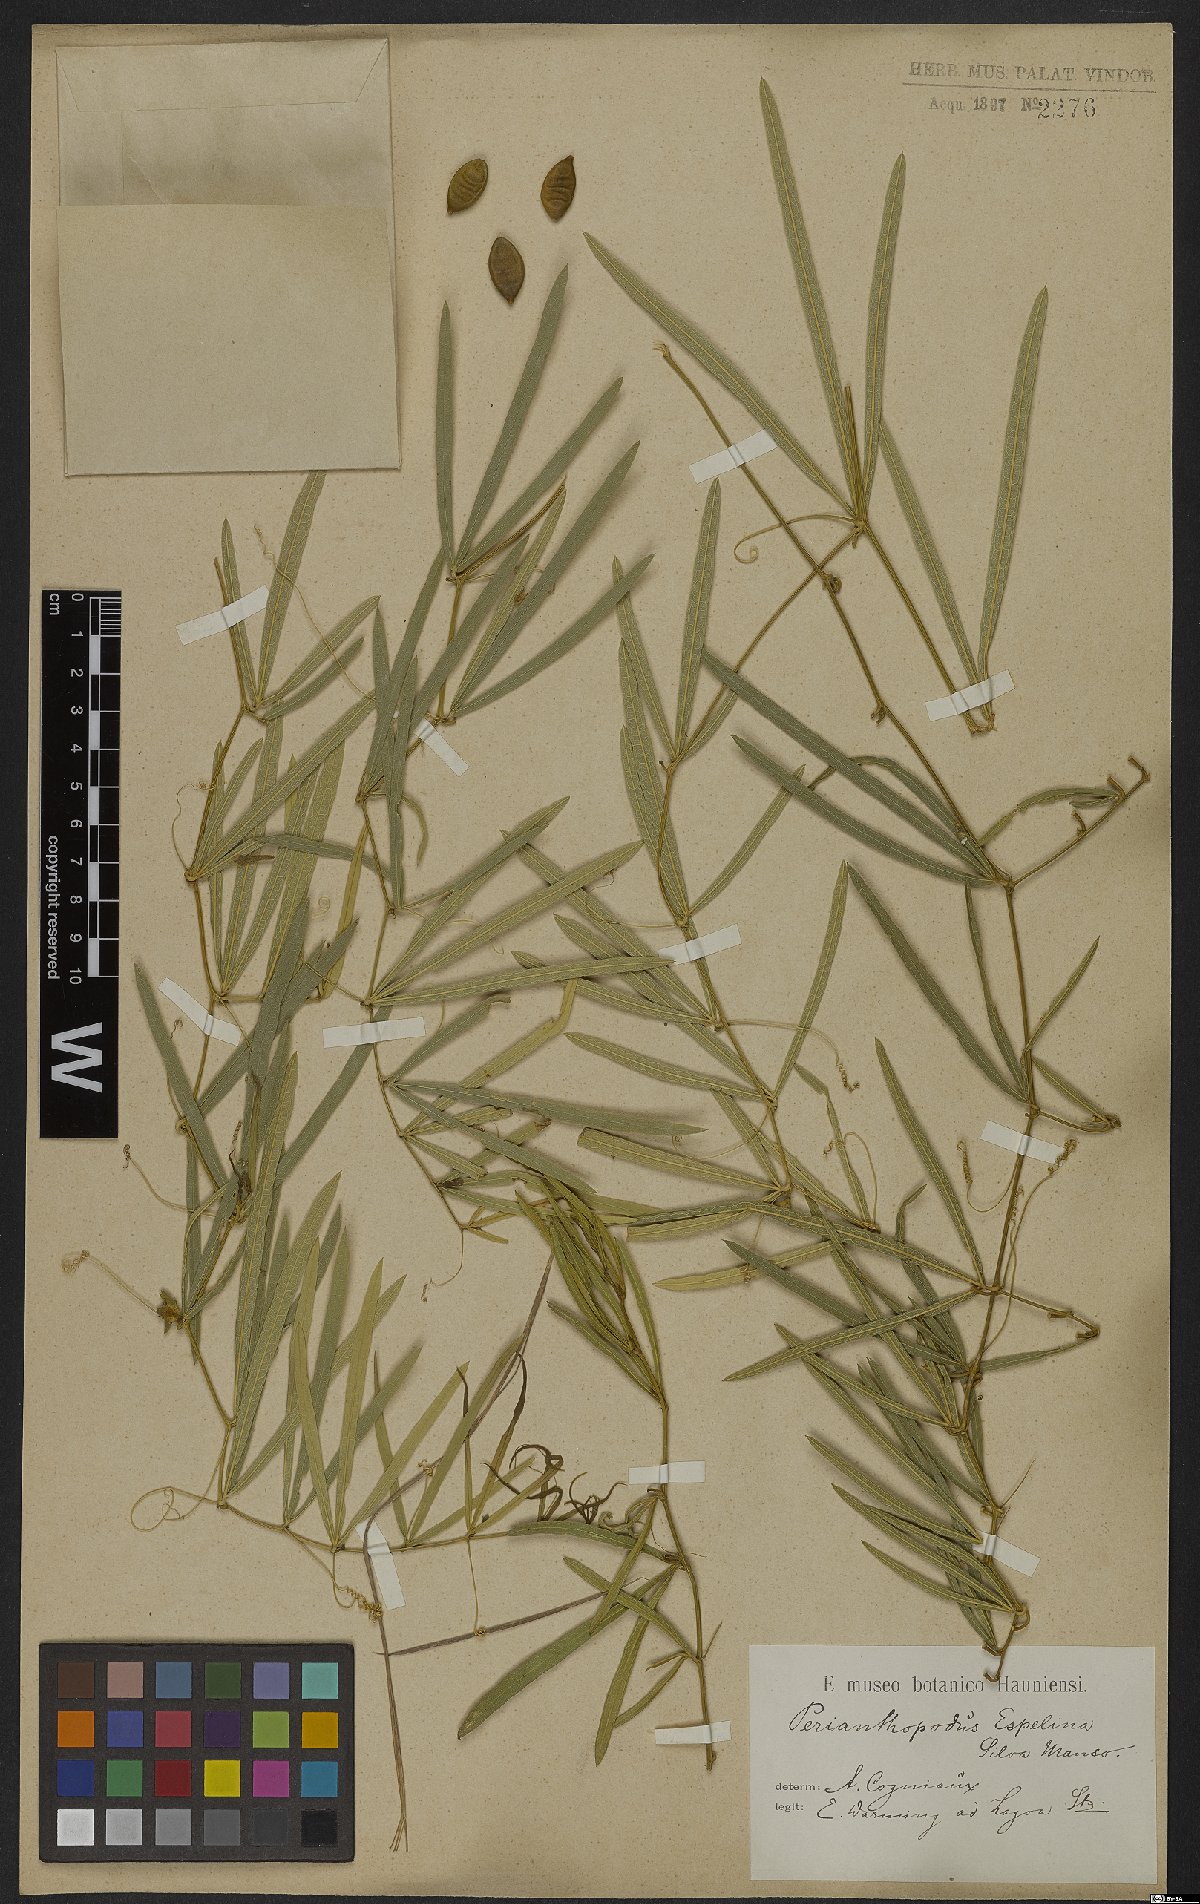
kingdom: Plantae
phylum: Tracheophyta
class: Magnoliopsida
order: Cucurbitales
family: Cucurbitaceae
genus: Cayaponia
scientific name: Cayaponia espelina
